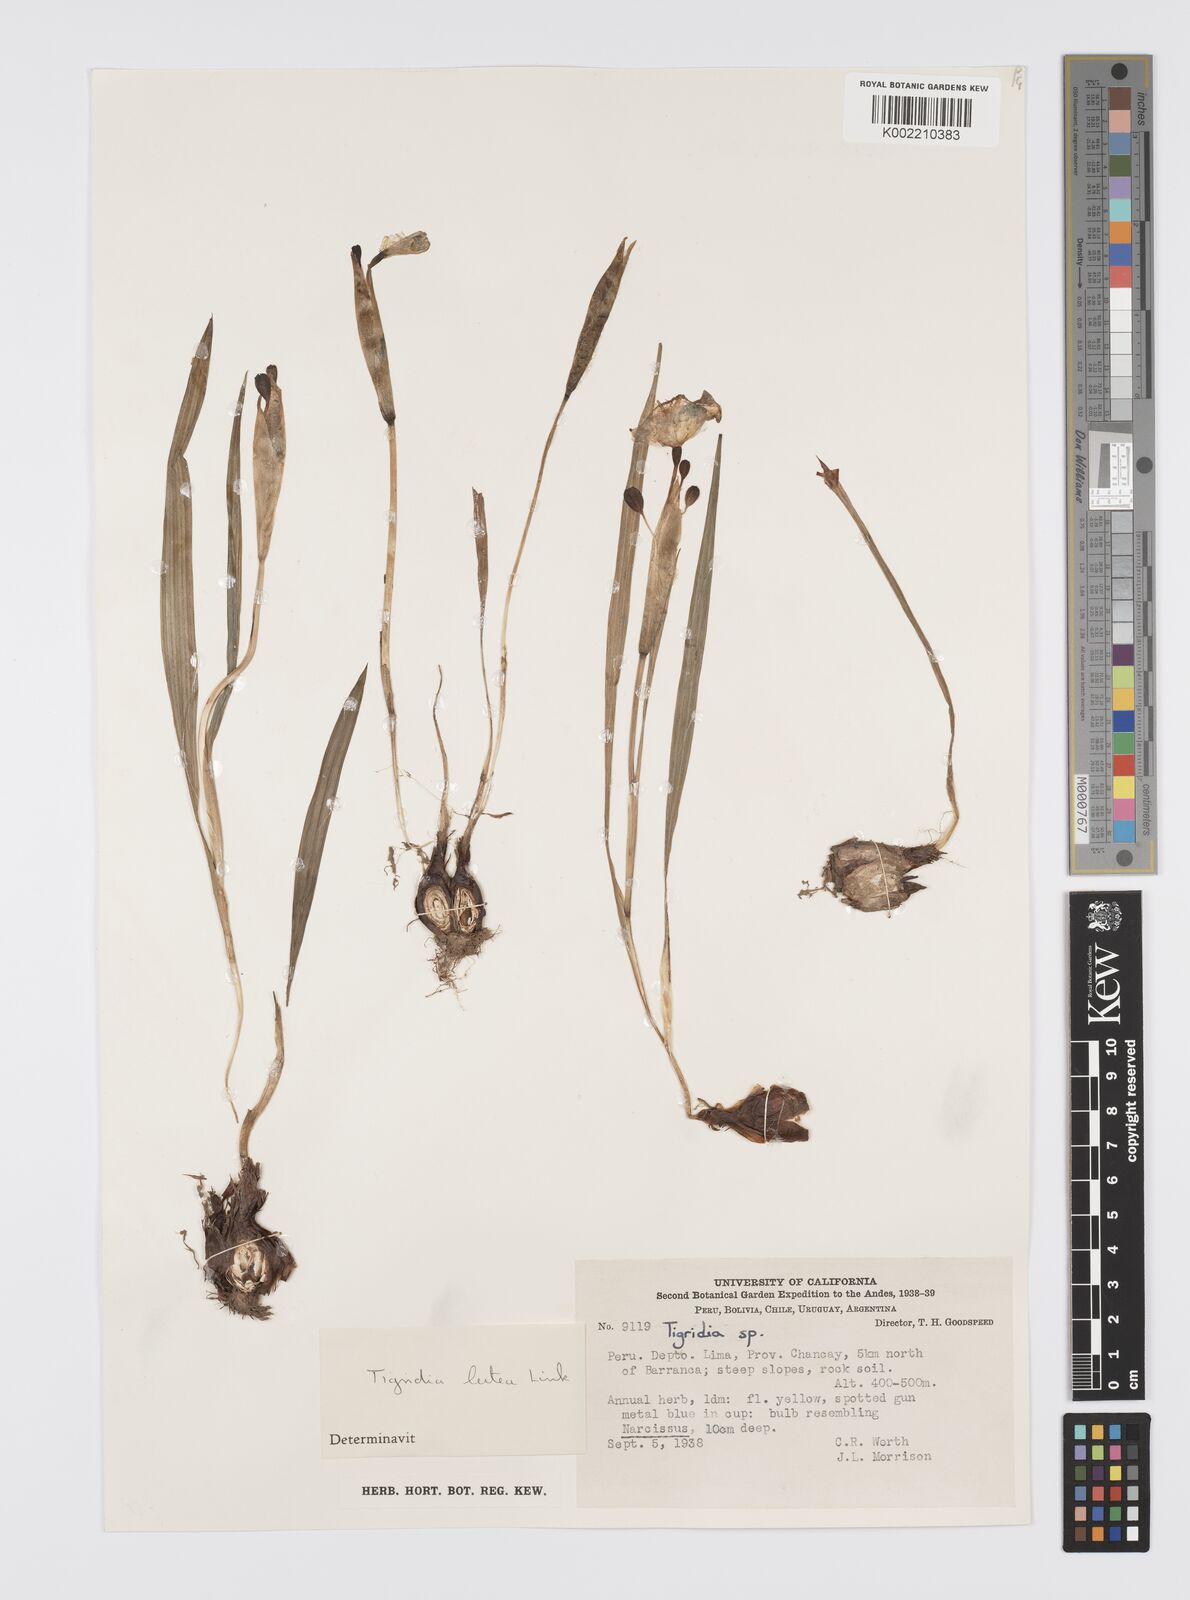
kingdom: Plantae
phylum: Tracheophyta
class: Liliopsida
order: Asparagales
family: Iridaceae
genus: Tigridia
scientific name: Tigridia pavonia
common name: Peacock-flower
